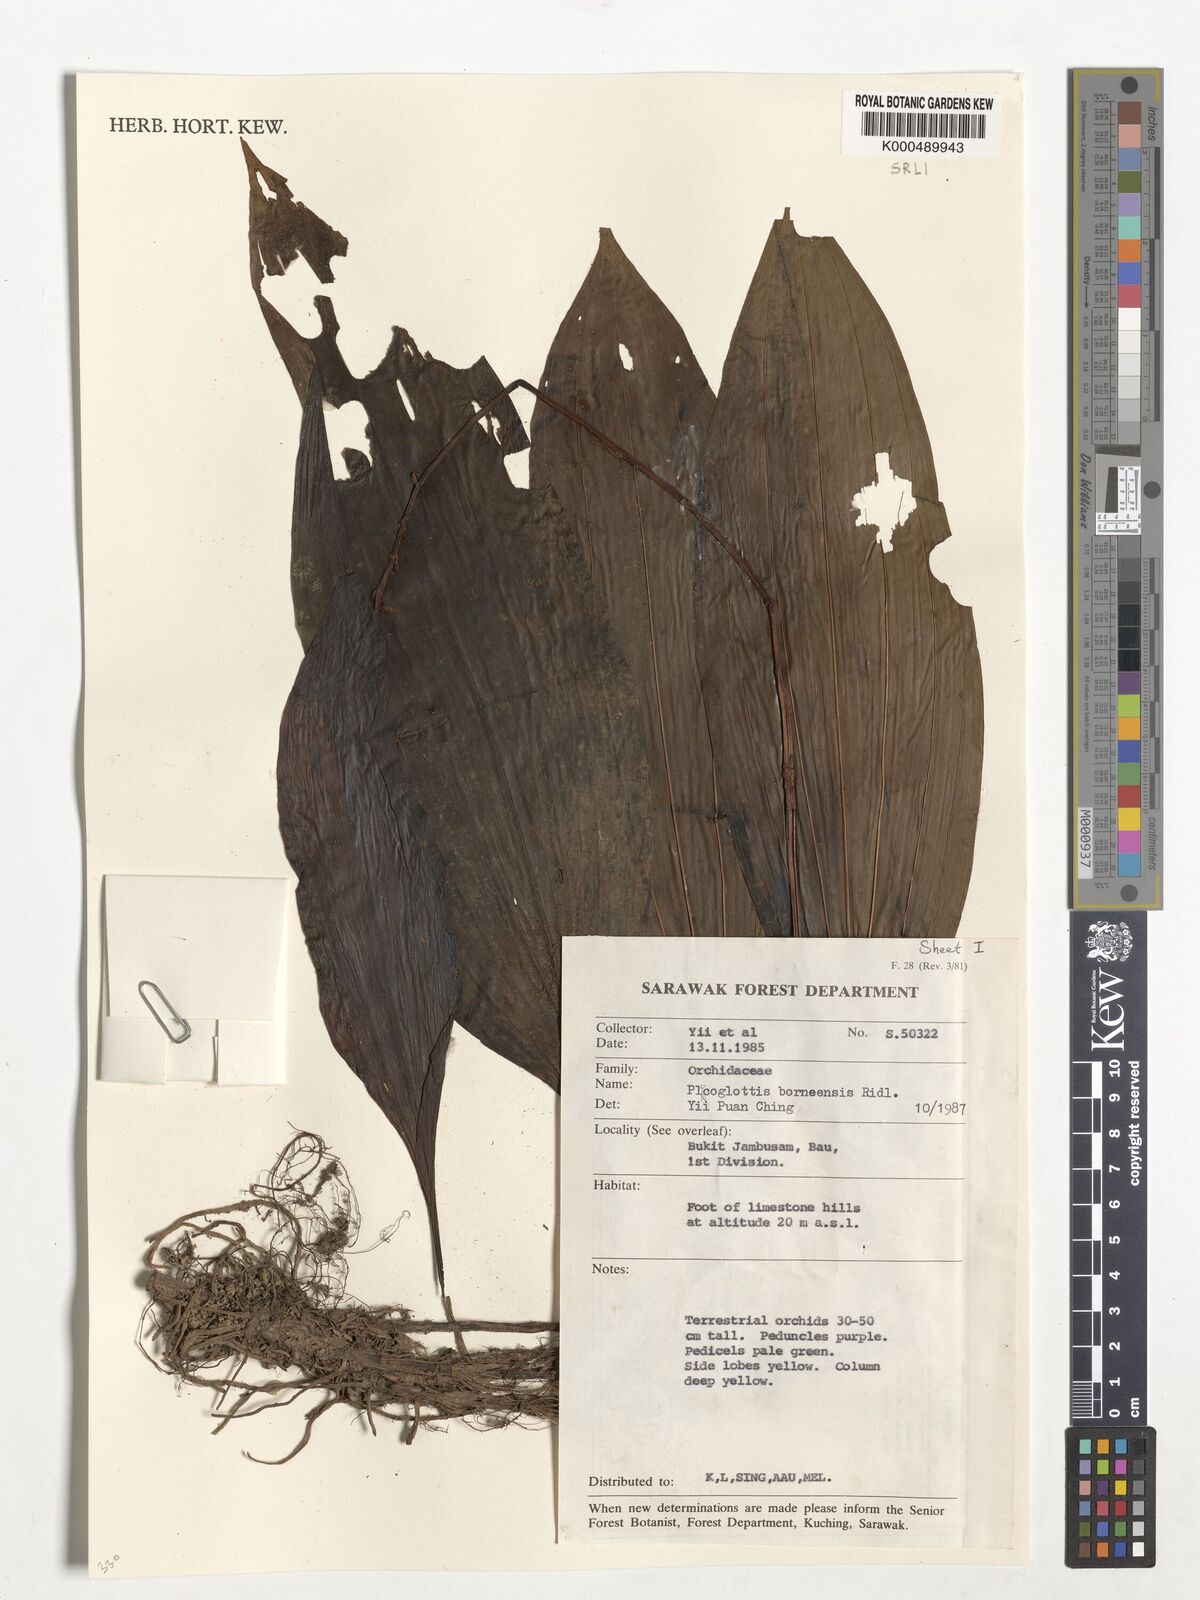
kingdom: Plantae
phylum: Tracheophyta
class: Liliopsida
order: Asparagales
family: Orchidaceae
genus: Plocoglottis
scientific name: Plocoglottis borneensis
